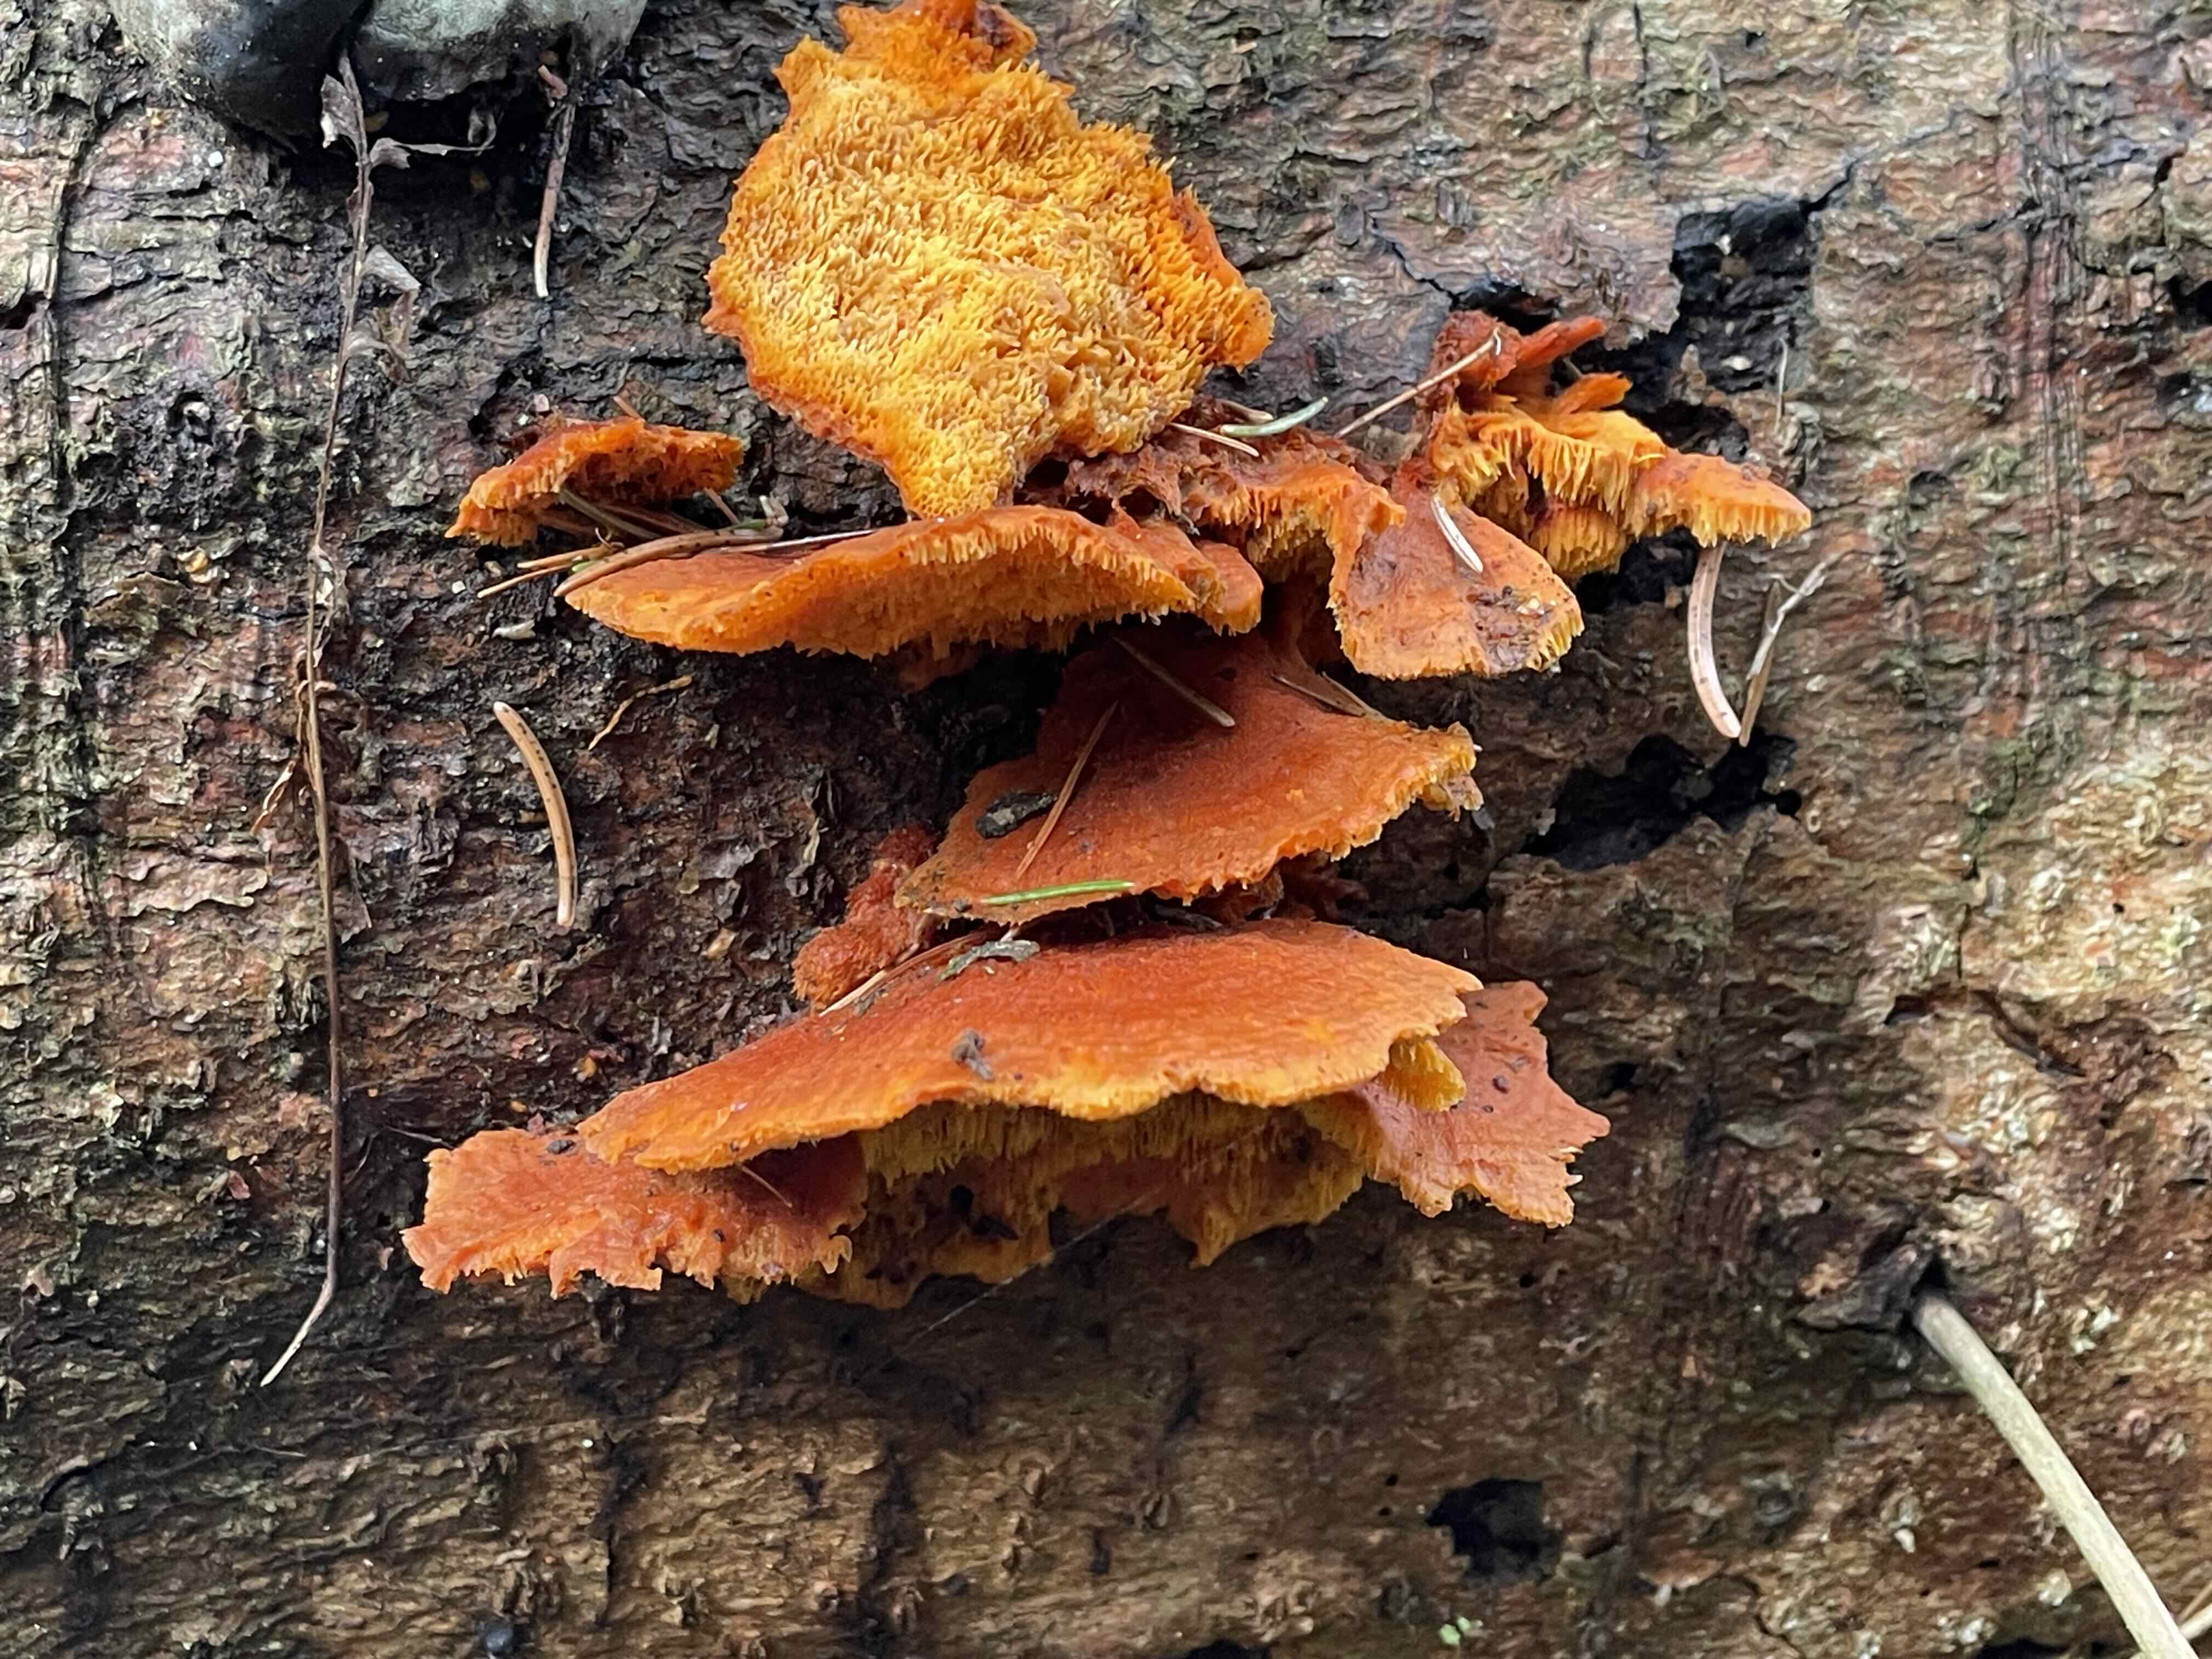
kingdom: Fungi
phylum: Basidiomycota
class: Agaricomycetes
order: Polyporales
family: Pycnoporellaceae
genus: Pycnoporellus
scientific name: Pycnoporellus fulgens
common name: flammeporesvamp
